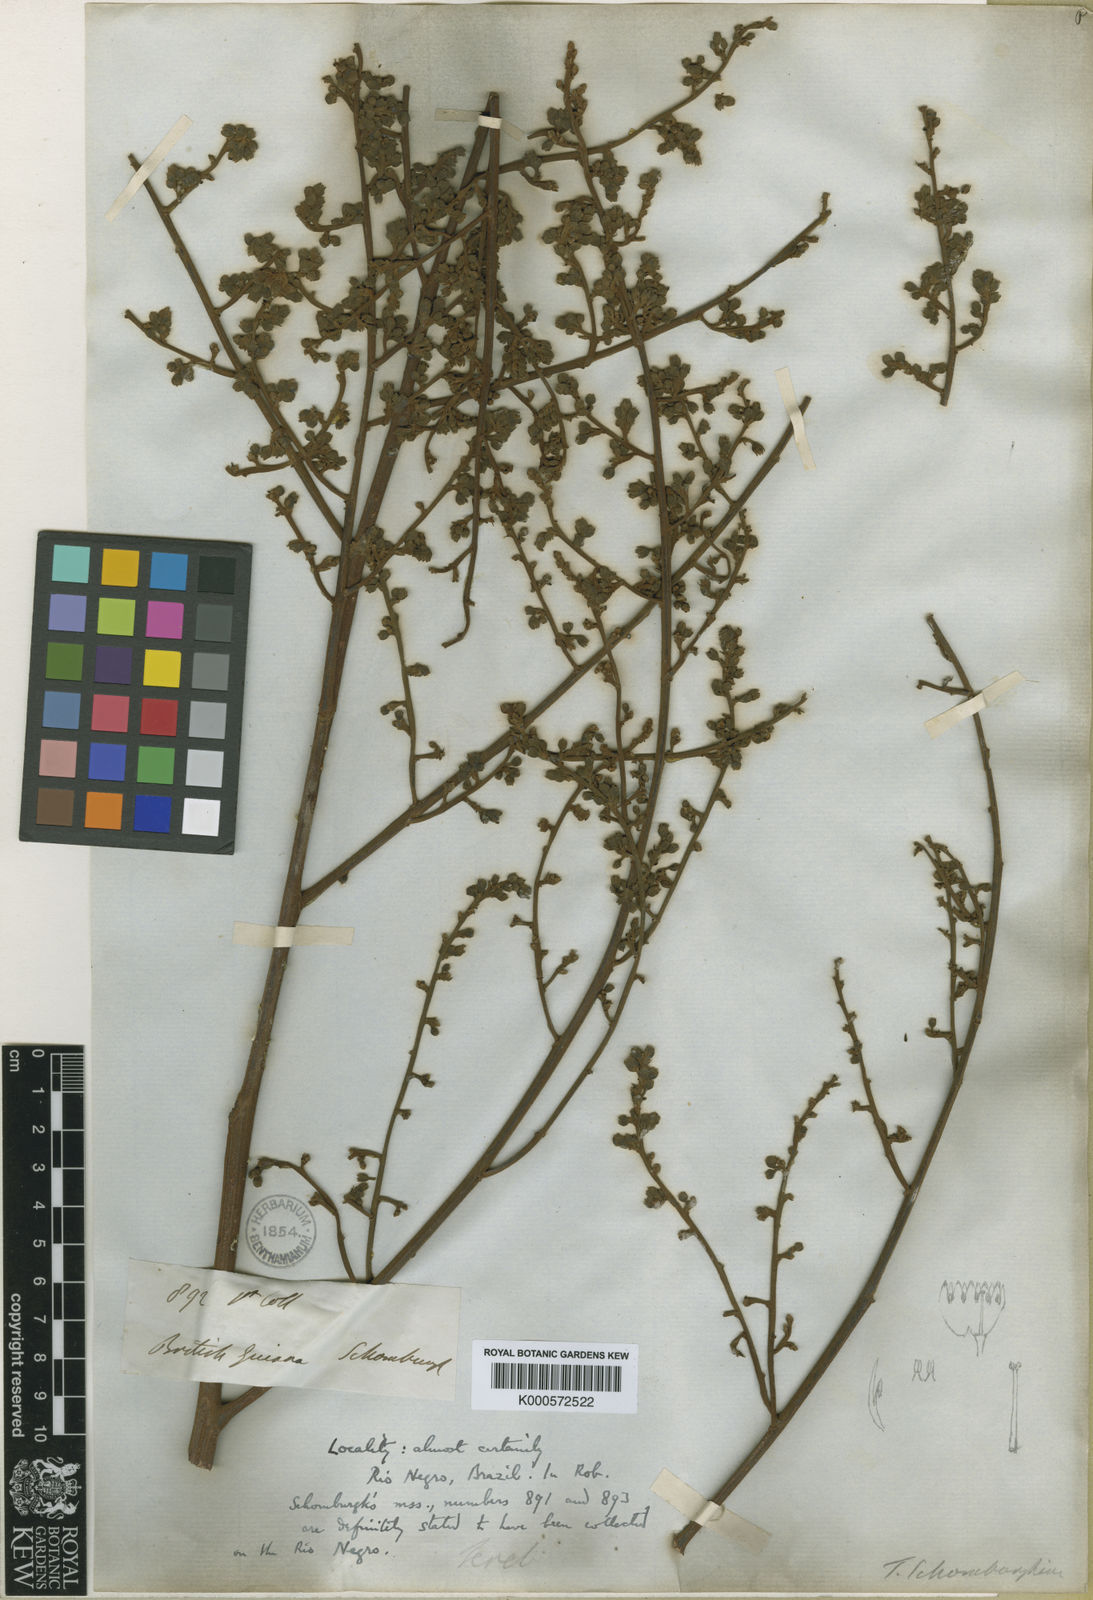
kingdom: Plantae
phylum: Tracheophyta
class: Magnoliopsida
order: Sapindales
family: Anacardiaceae
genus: Thyrsodium
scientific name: Thyrsodium spruceanum
